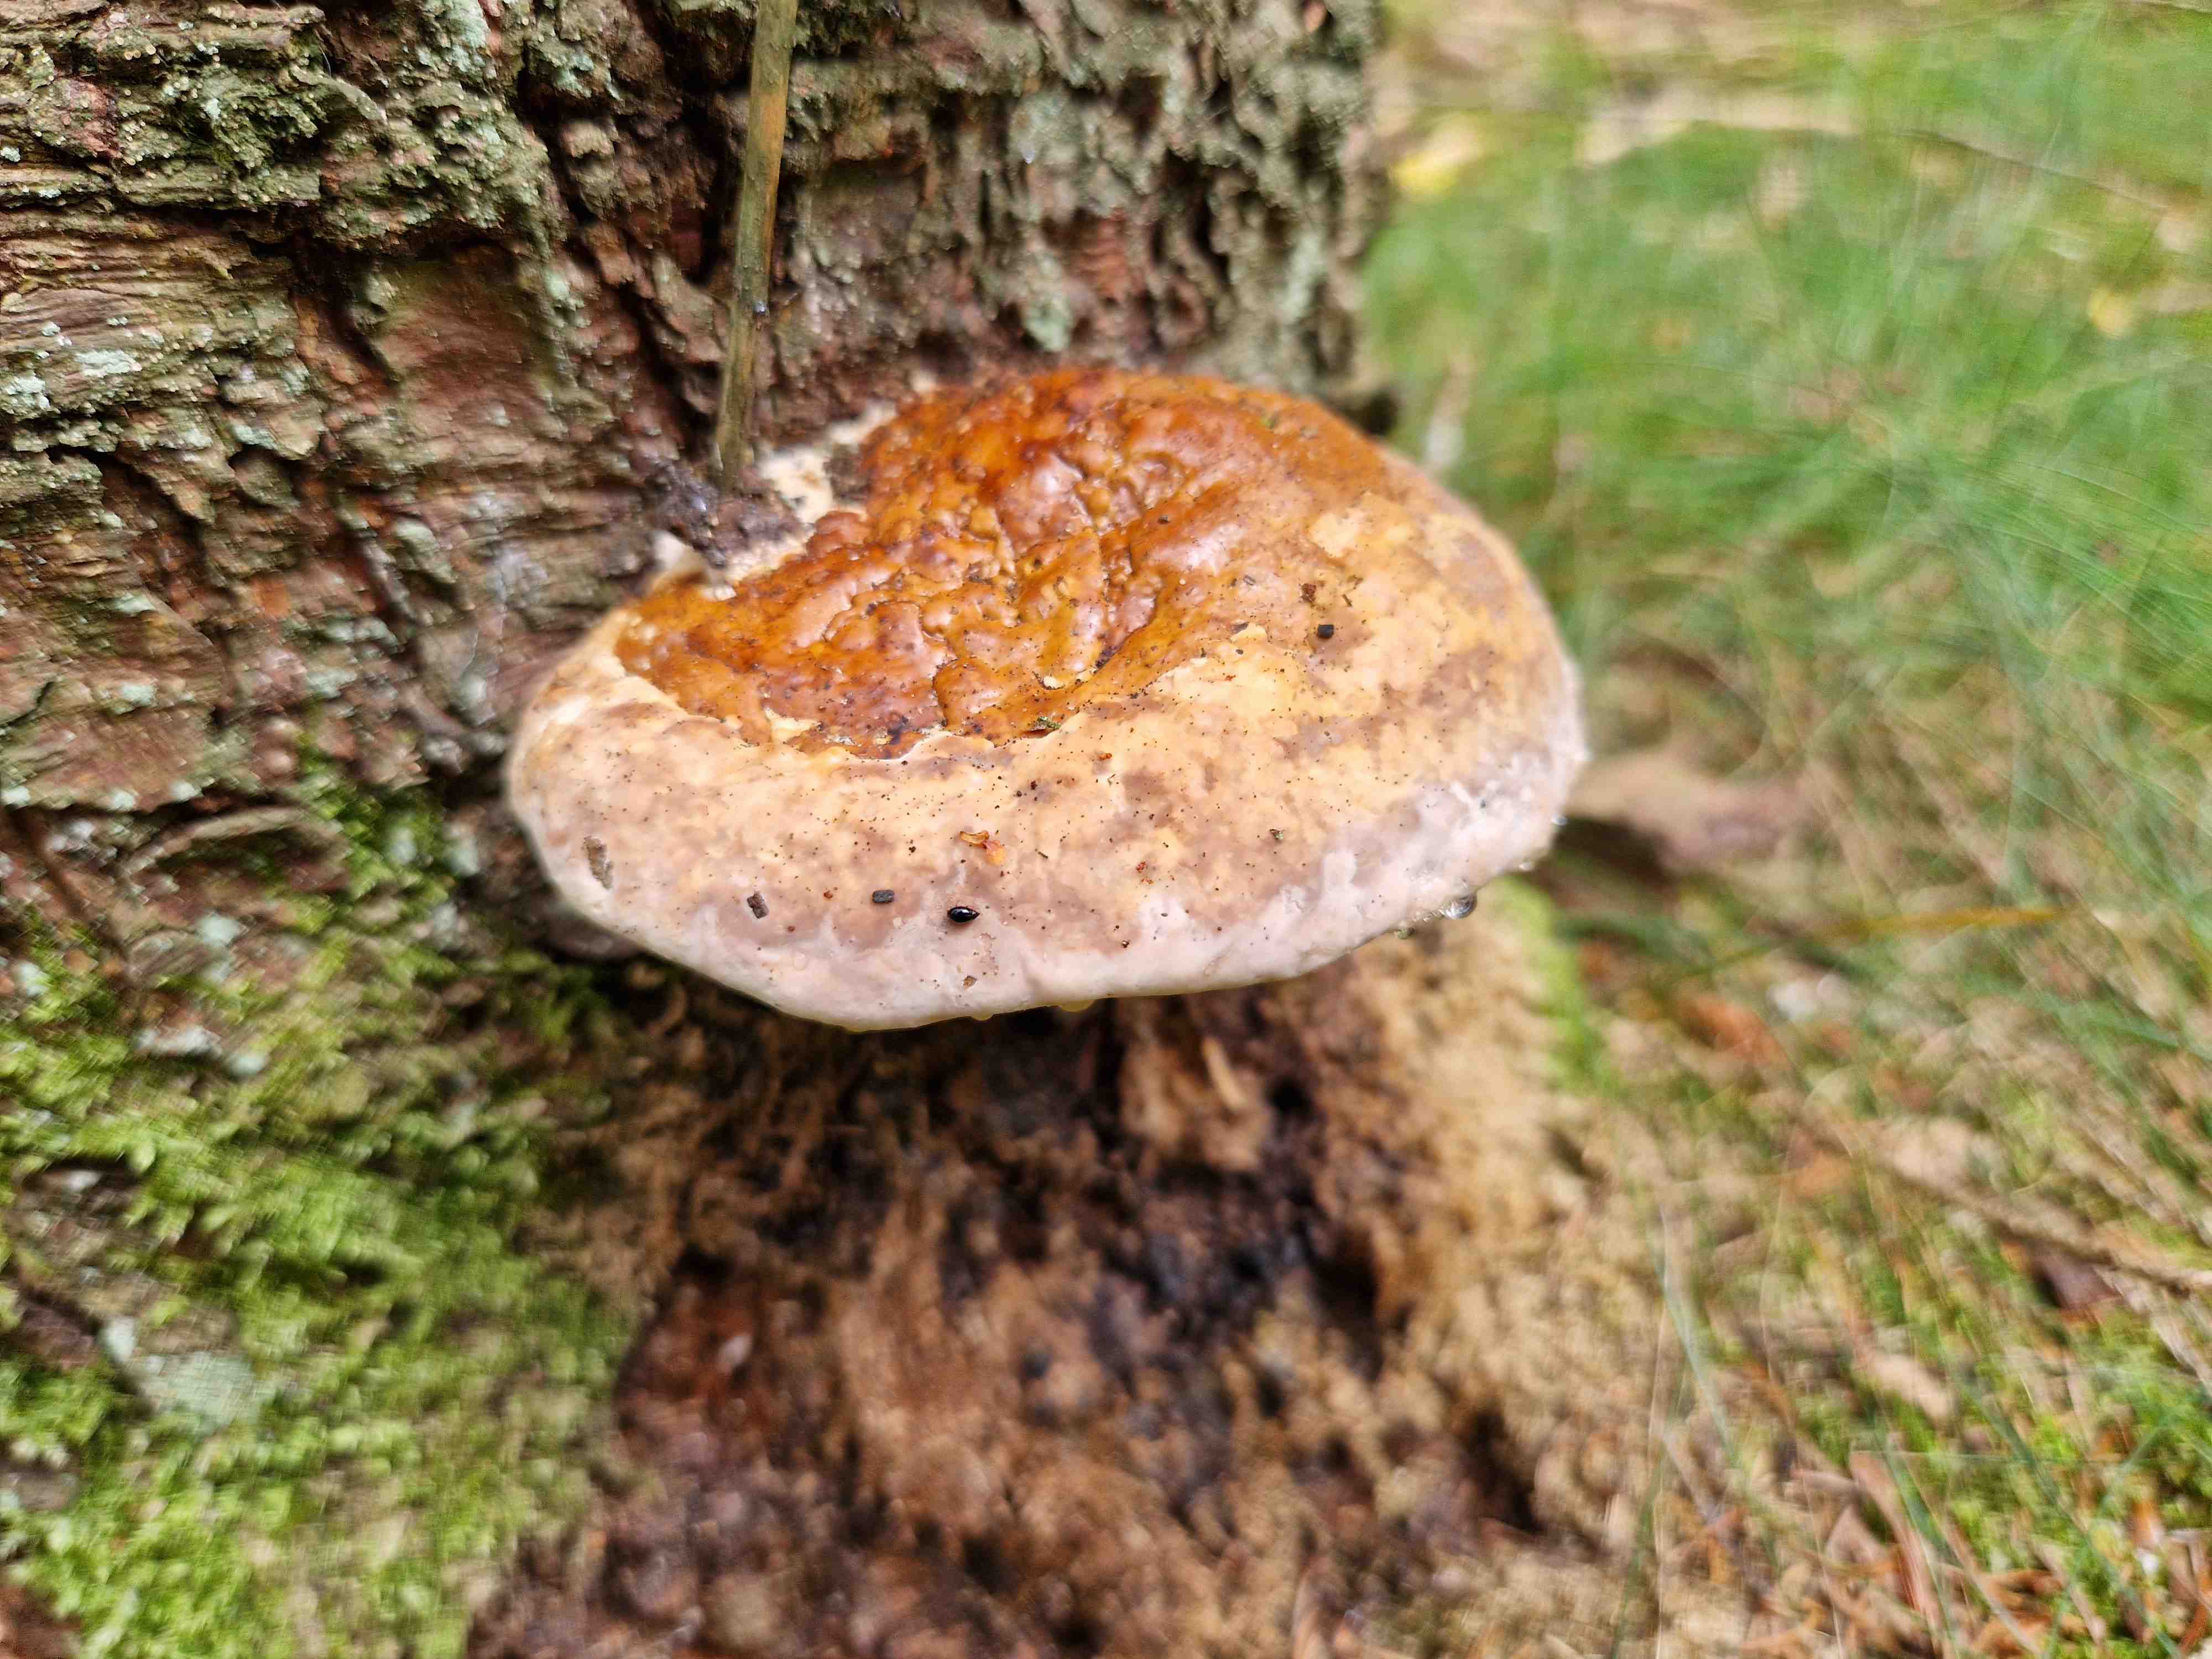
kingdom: Fungi
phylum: Basidiomycota
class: Agaricomycetes
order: Polyporales
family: Fomitopsidaceae
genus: Fomitopsis
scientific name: Fomitopsis pinicola
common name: randbæltet hovporesvamp
